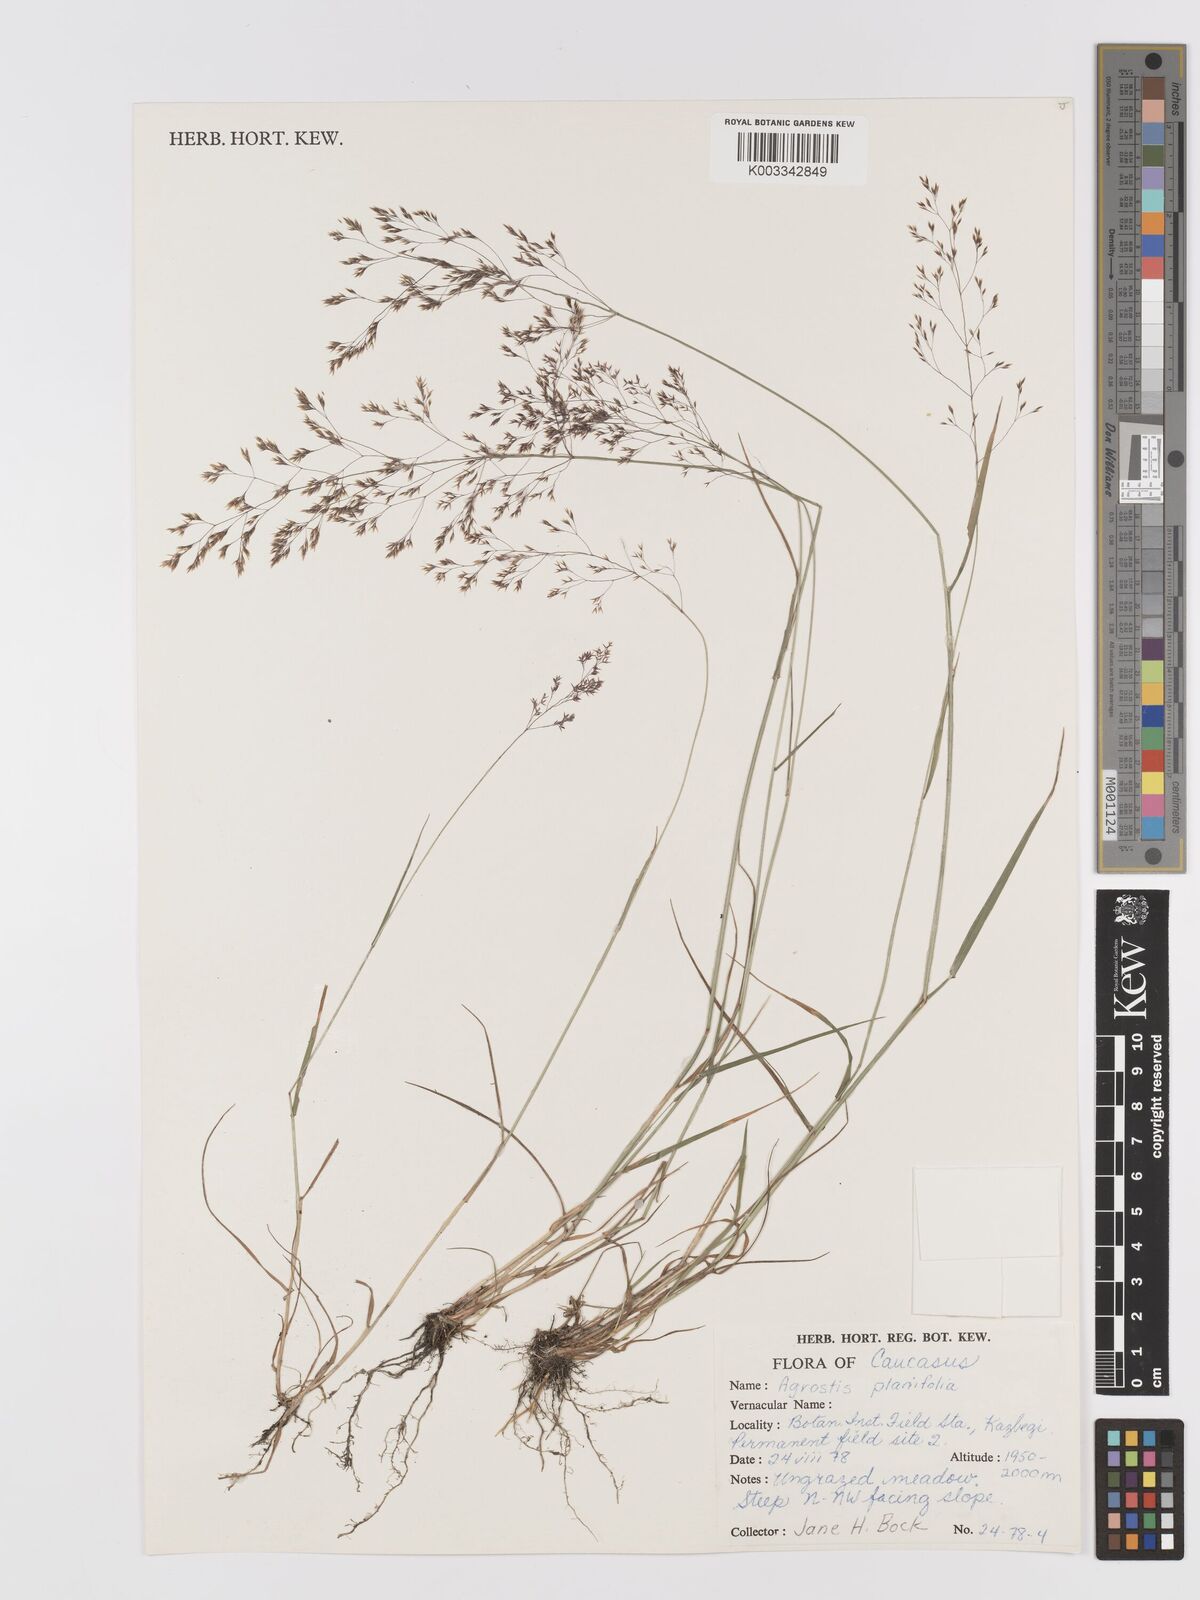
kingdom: Plantae
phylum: Tracheophyta
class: Liliopsida
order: Poales
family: Poaceae
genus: Agrostis
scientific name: Agrostis vinealis
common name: Brown bent
